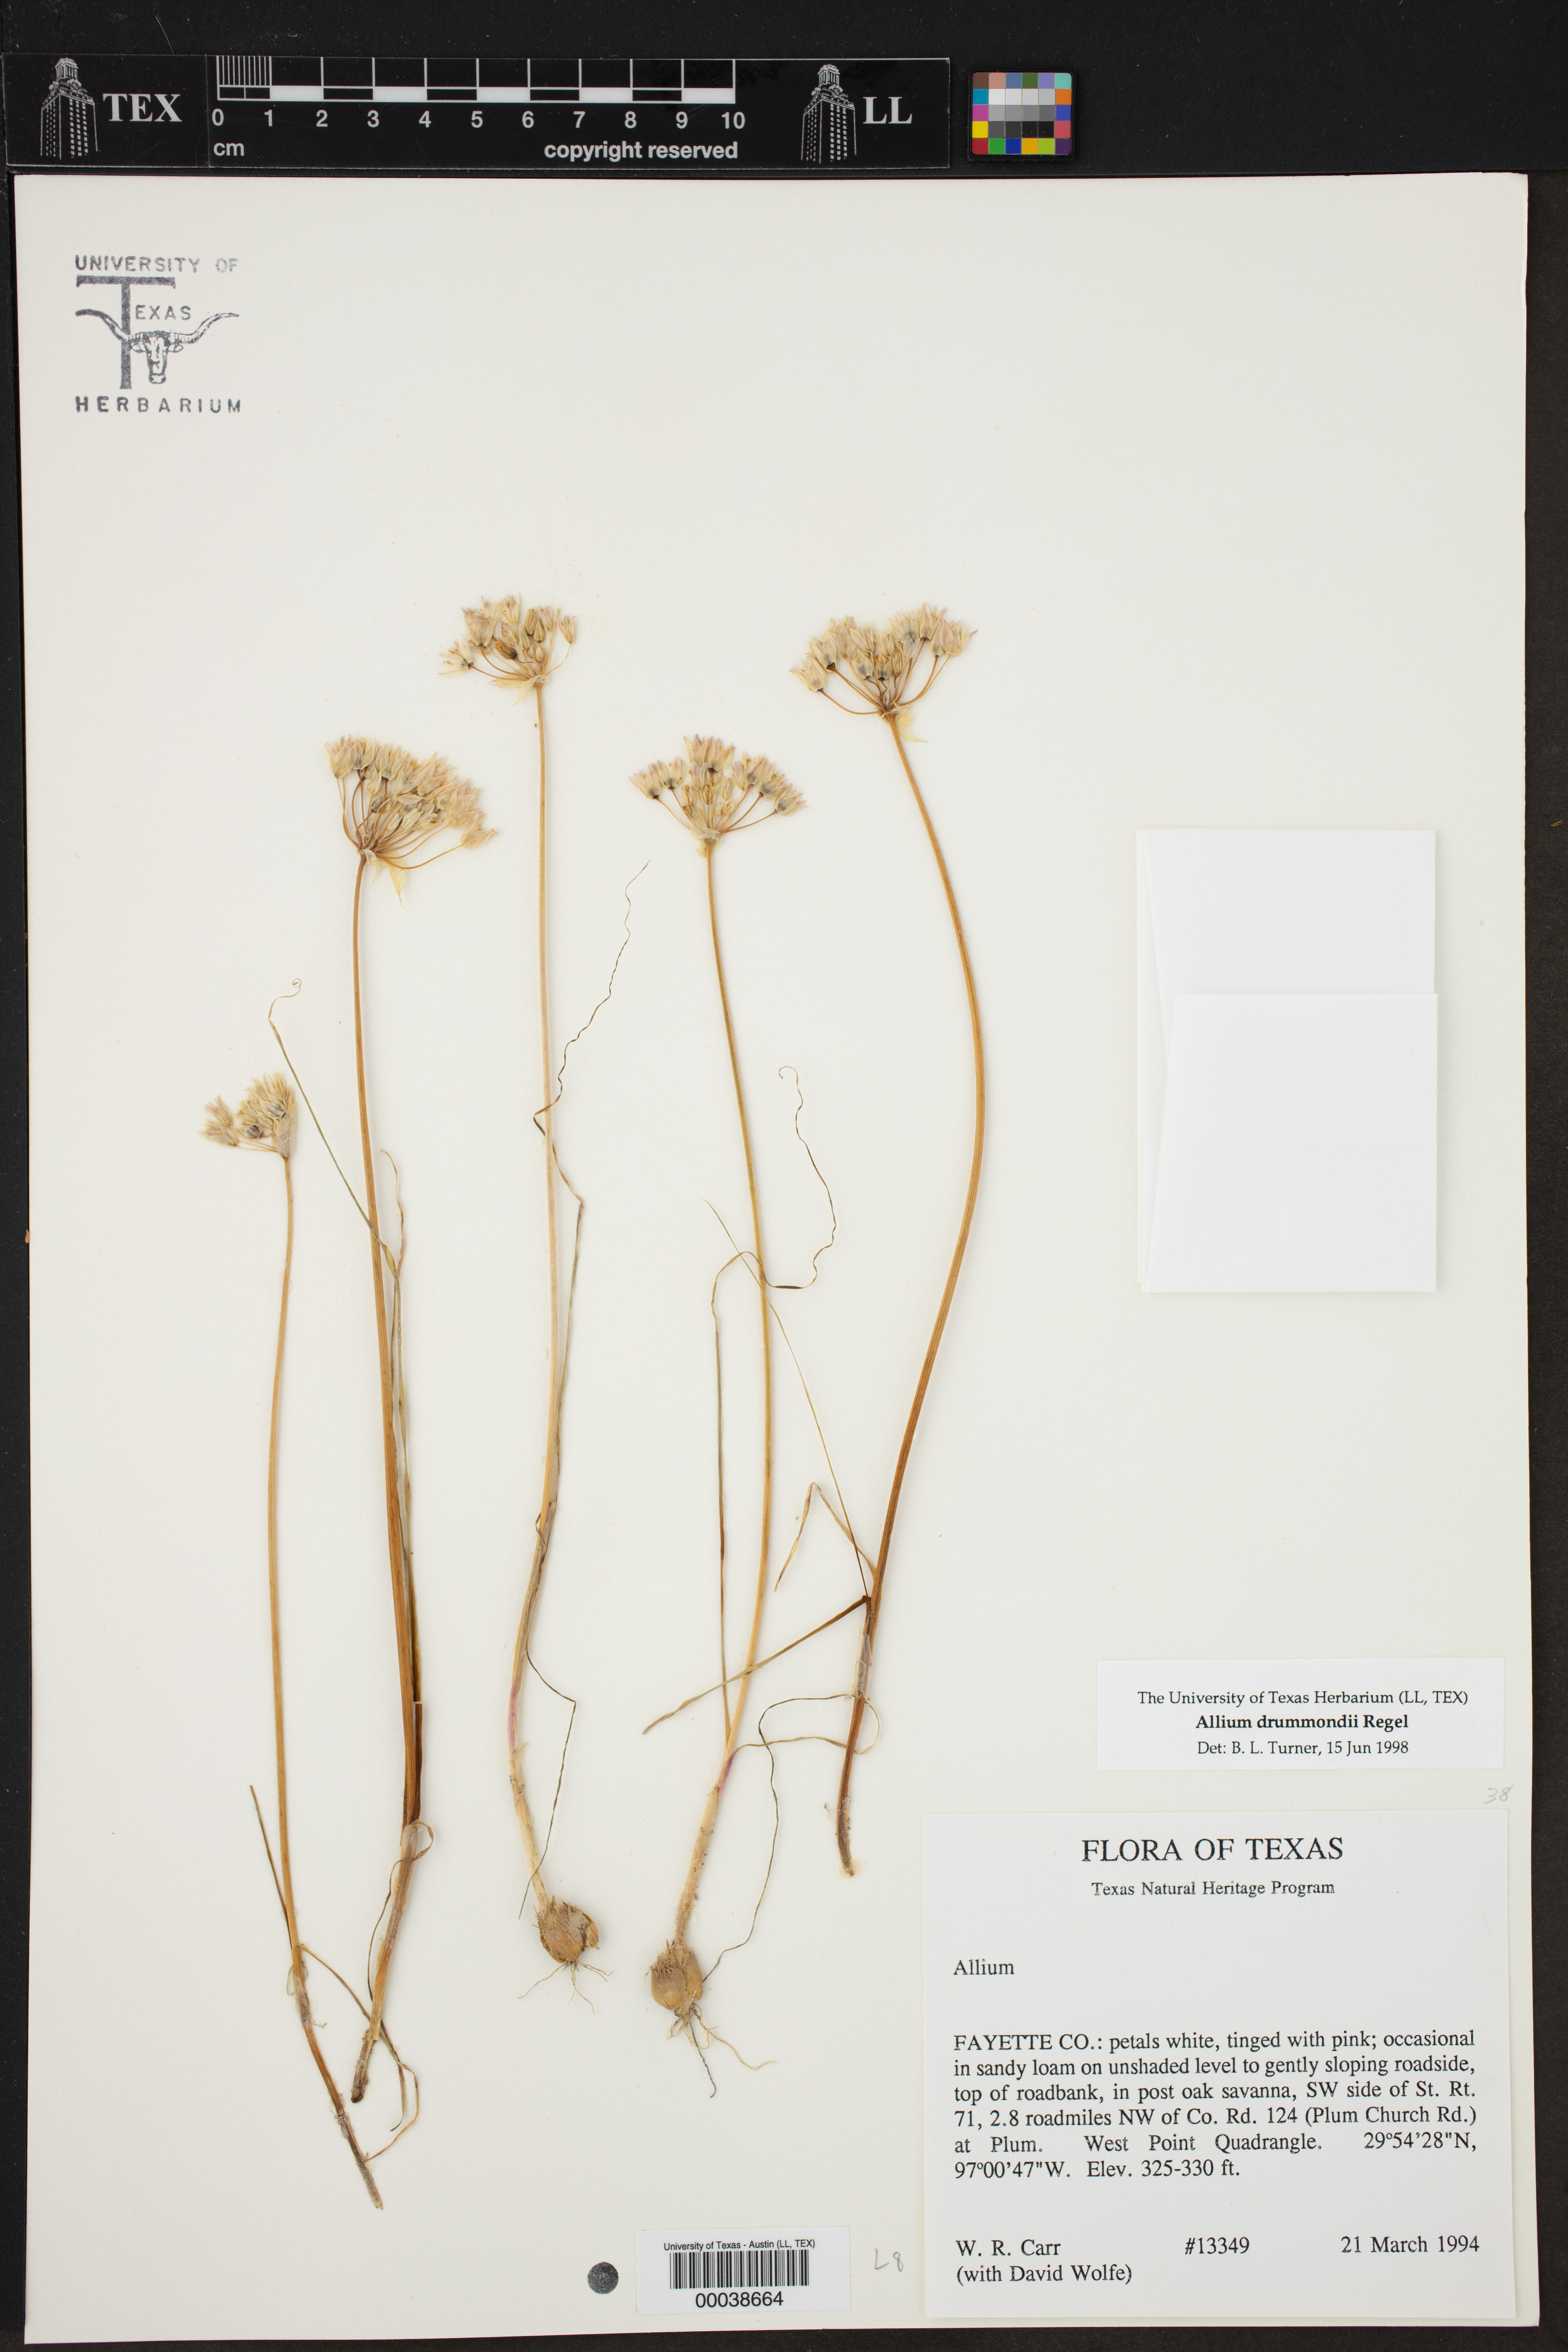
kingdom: Plantae
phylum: Tracheophyta
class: Liliopsida
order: Asparagales
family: Amaryllidaceae
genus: Allium
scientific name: Allium drummondii
